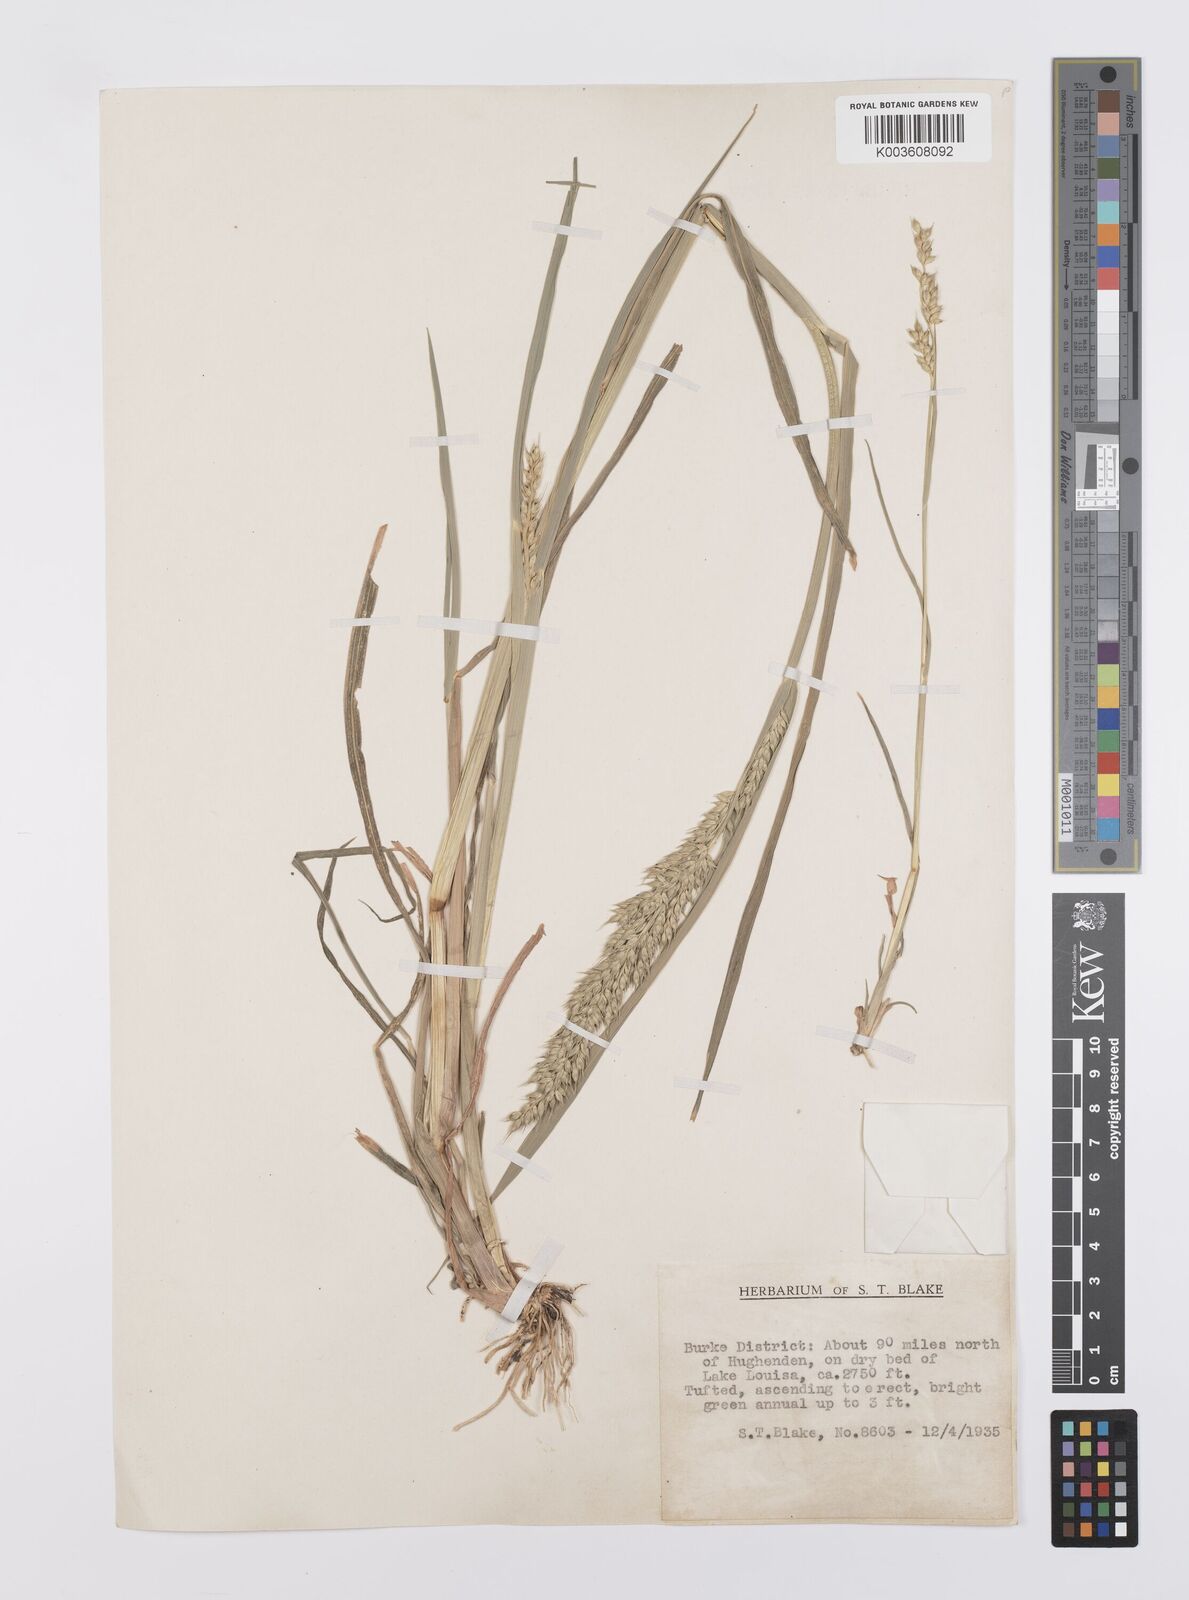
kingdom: Plantae
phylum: Tracheophyta
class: Liliopsida
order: Poales
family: Poaceae
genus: Echinochloa
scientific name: Echinochloa turneriana
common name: Channel millet
